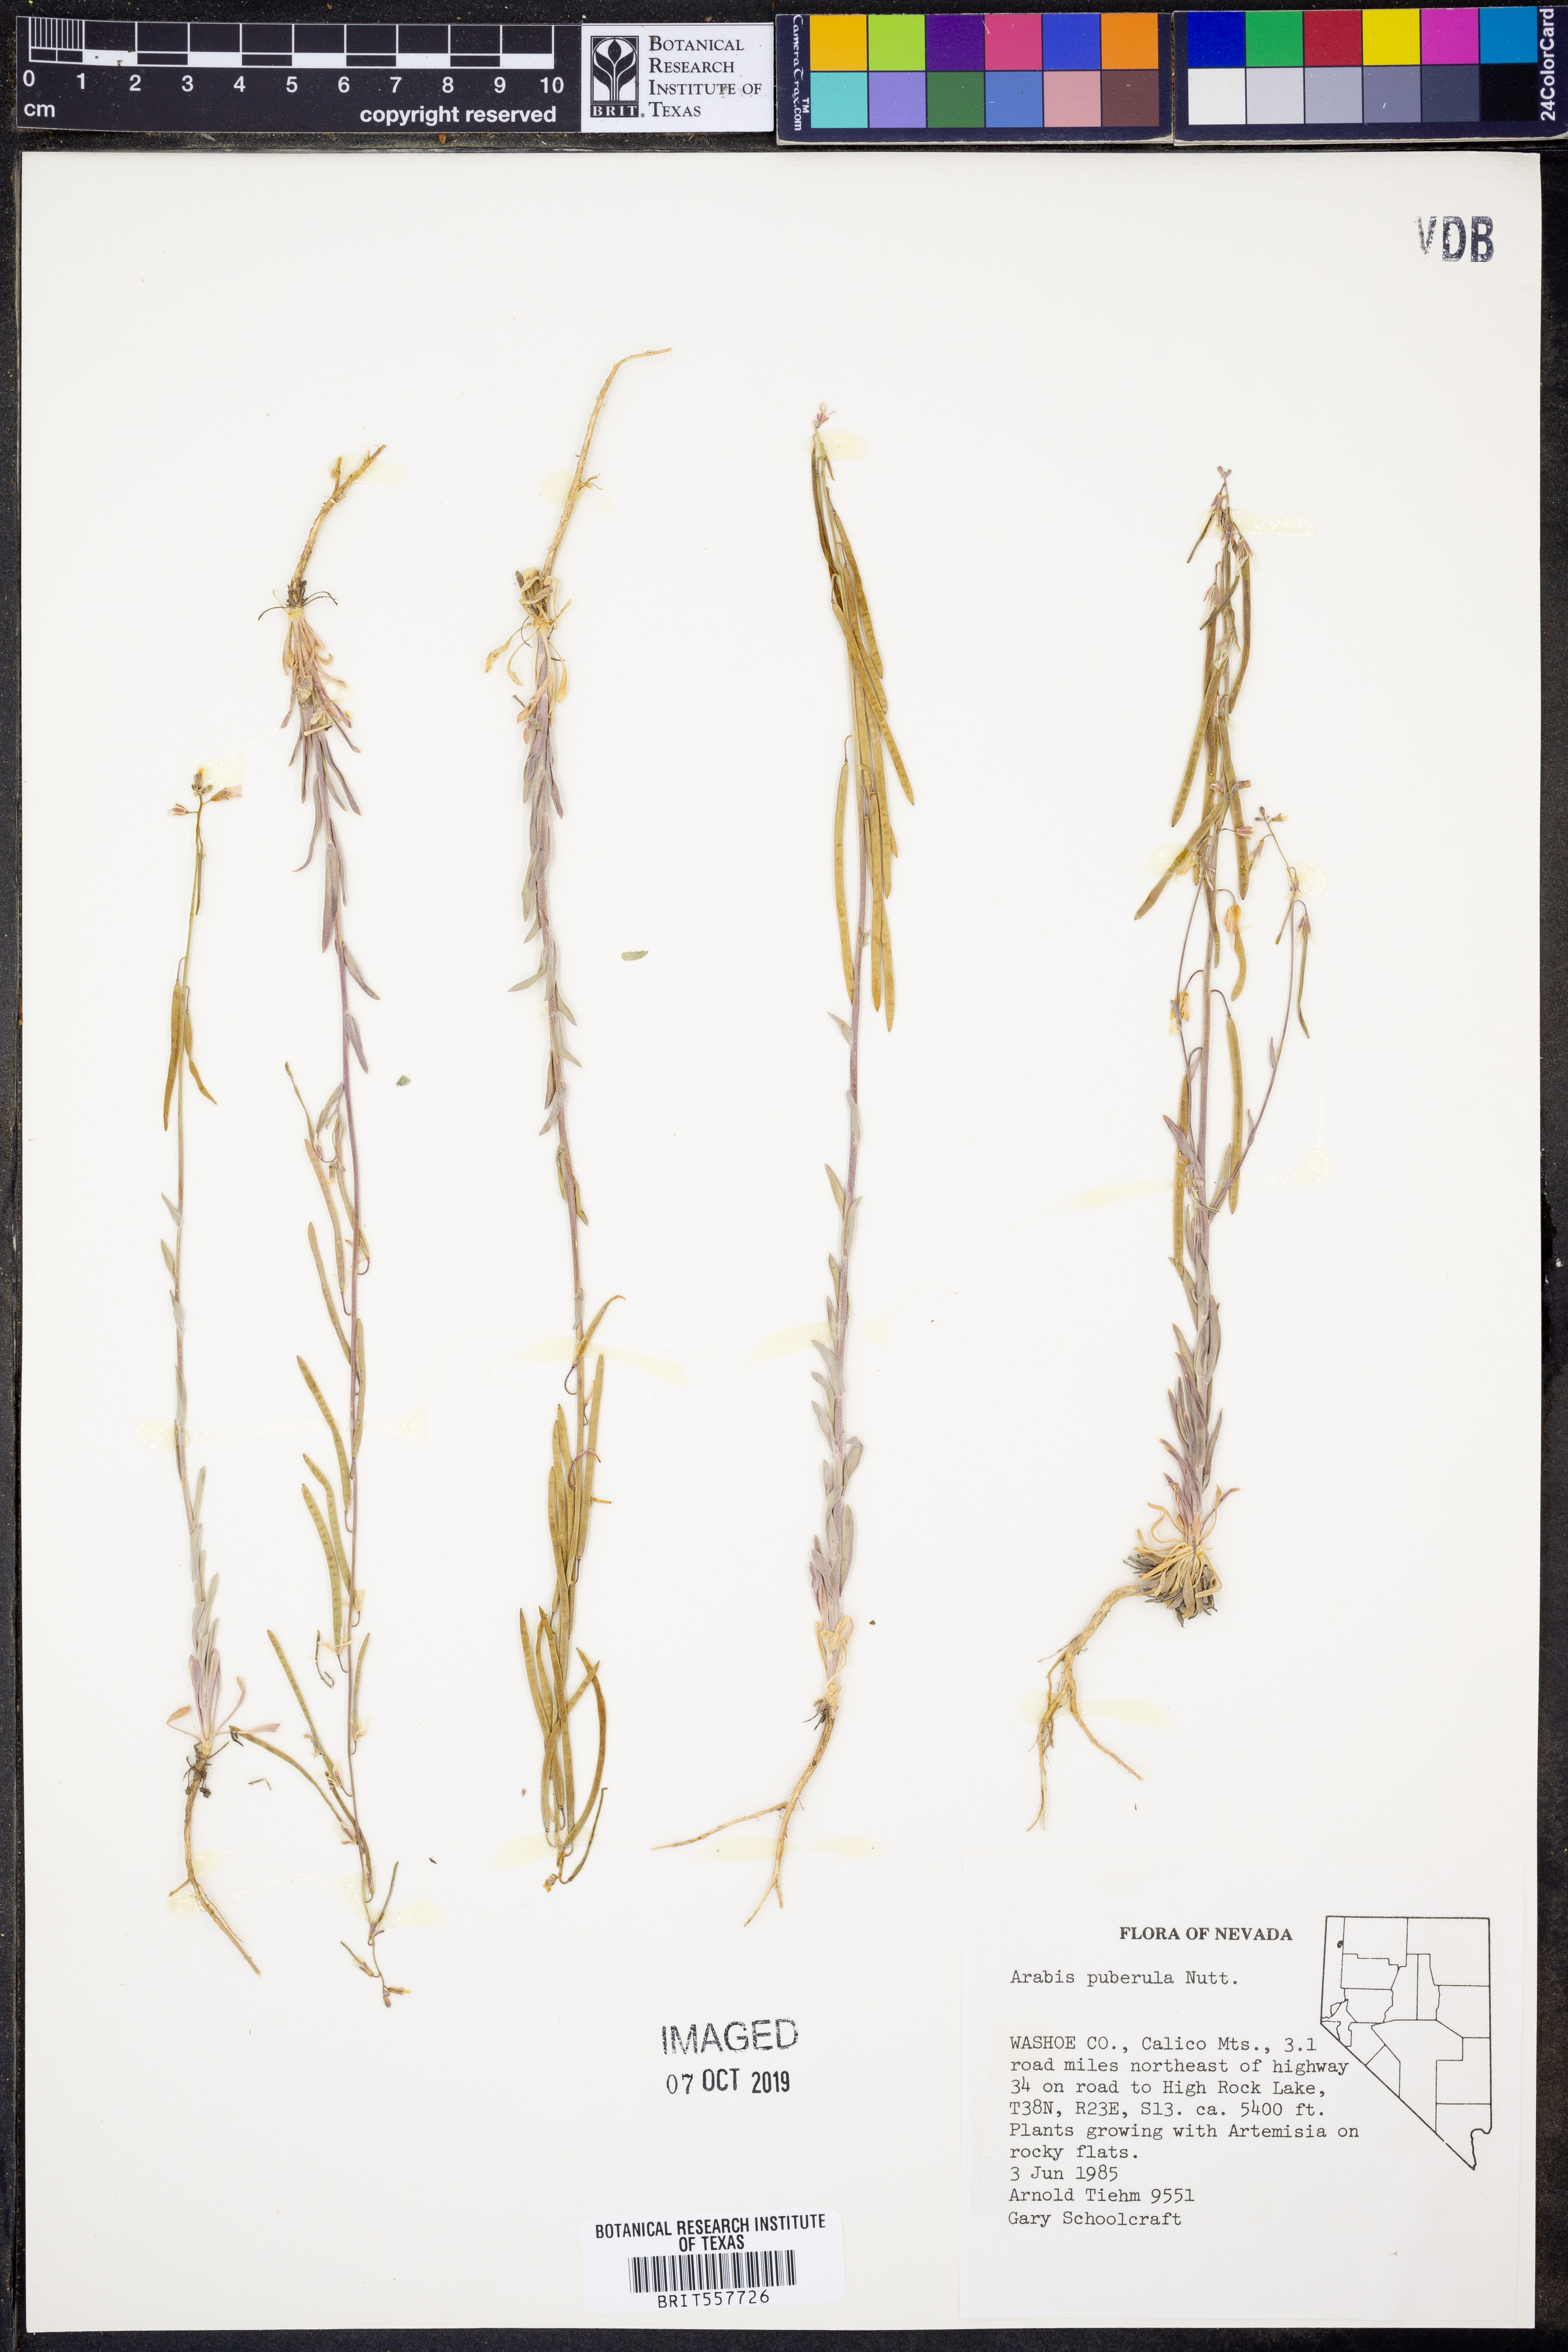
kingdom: Plantae
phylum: Tracheophyta
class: Magnoliopsida
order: Brassicales
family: Brassicaceae
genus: Boechera
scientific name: Boechera puberula
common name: Puberulent rockcress
